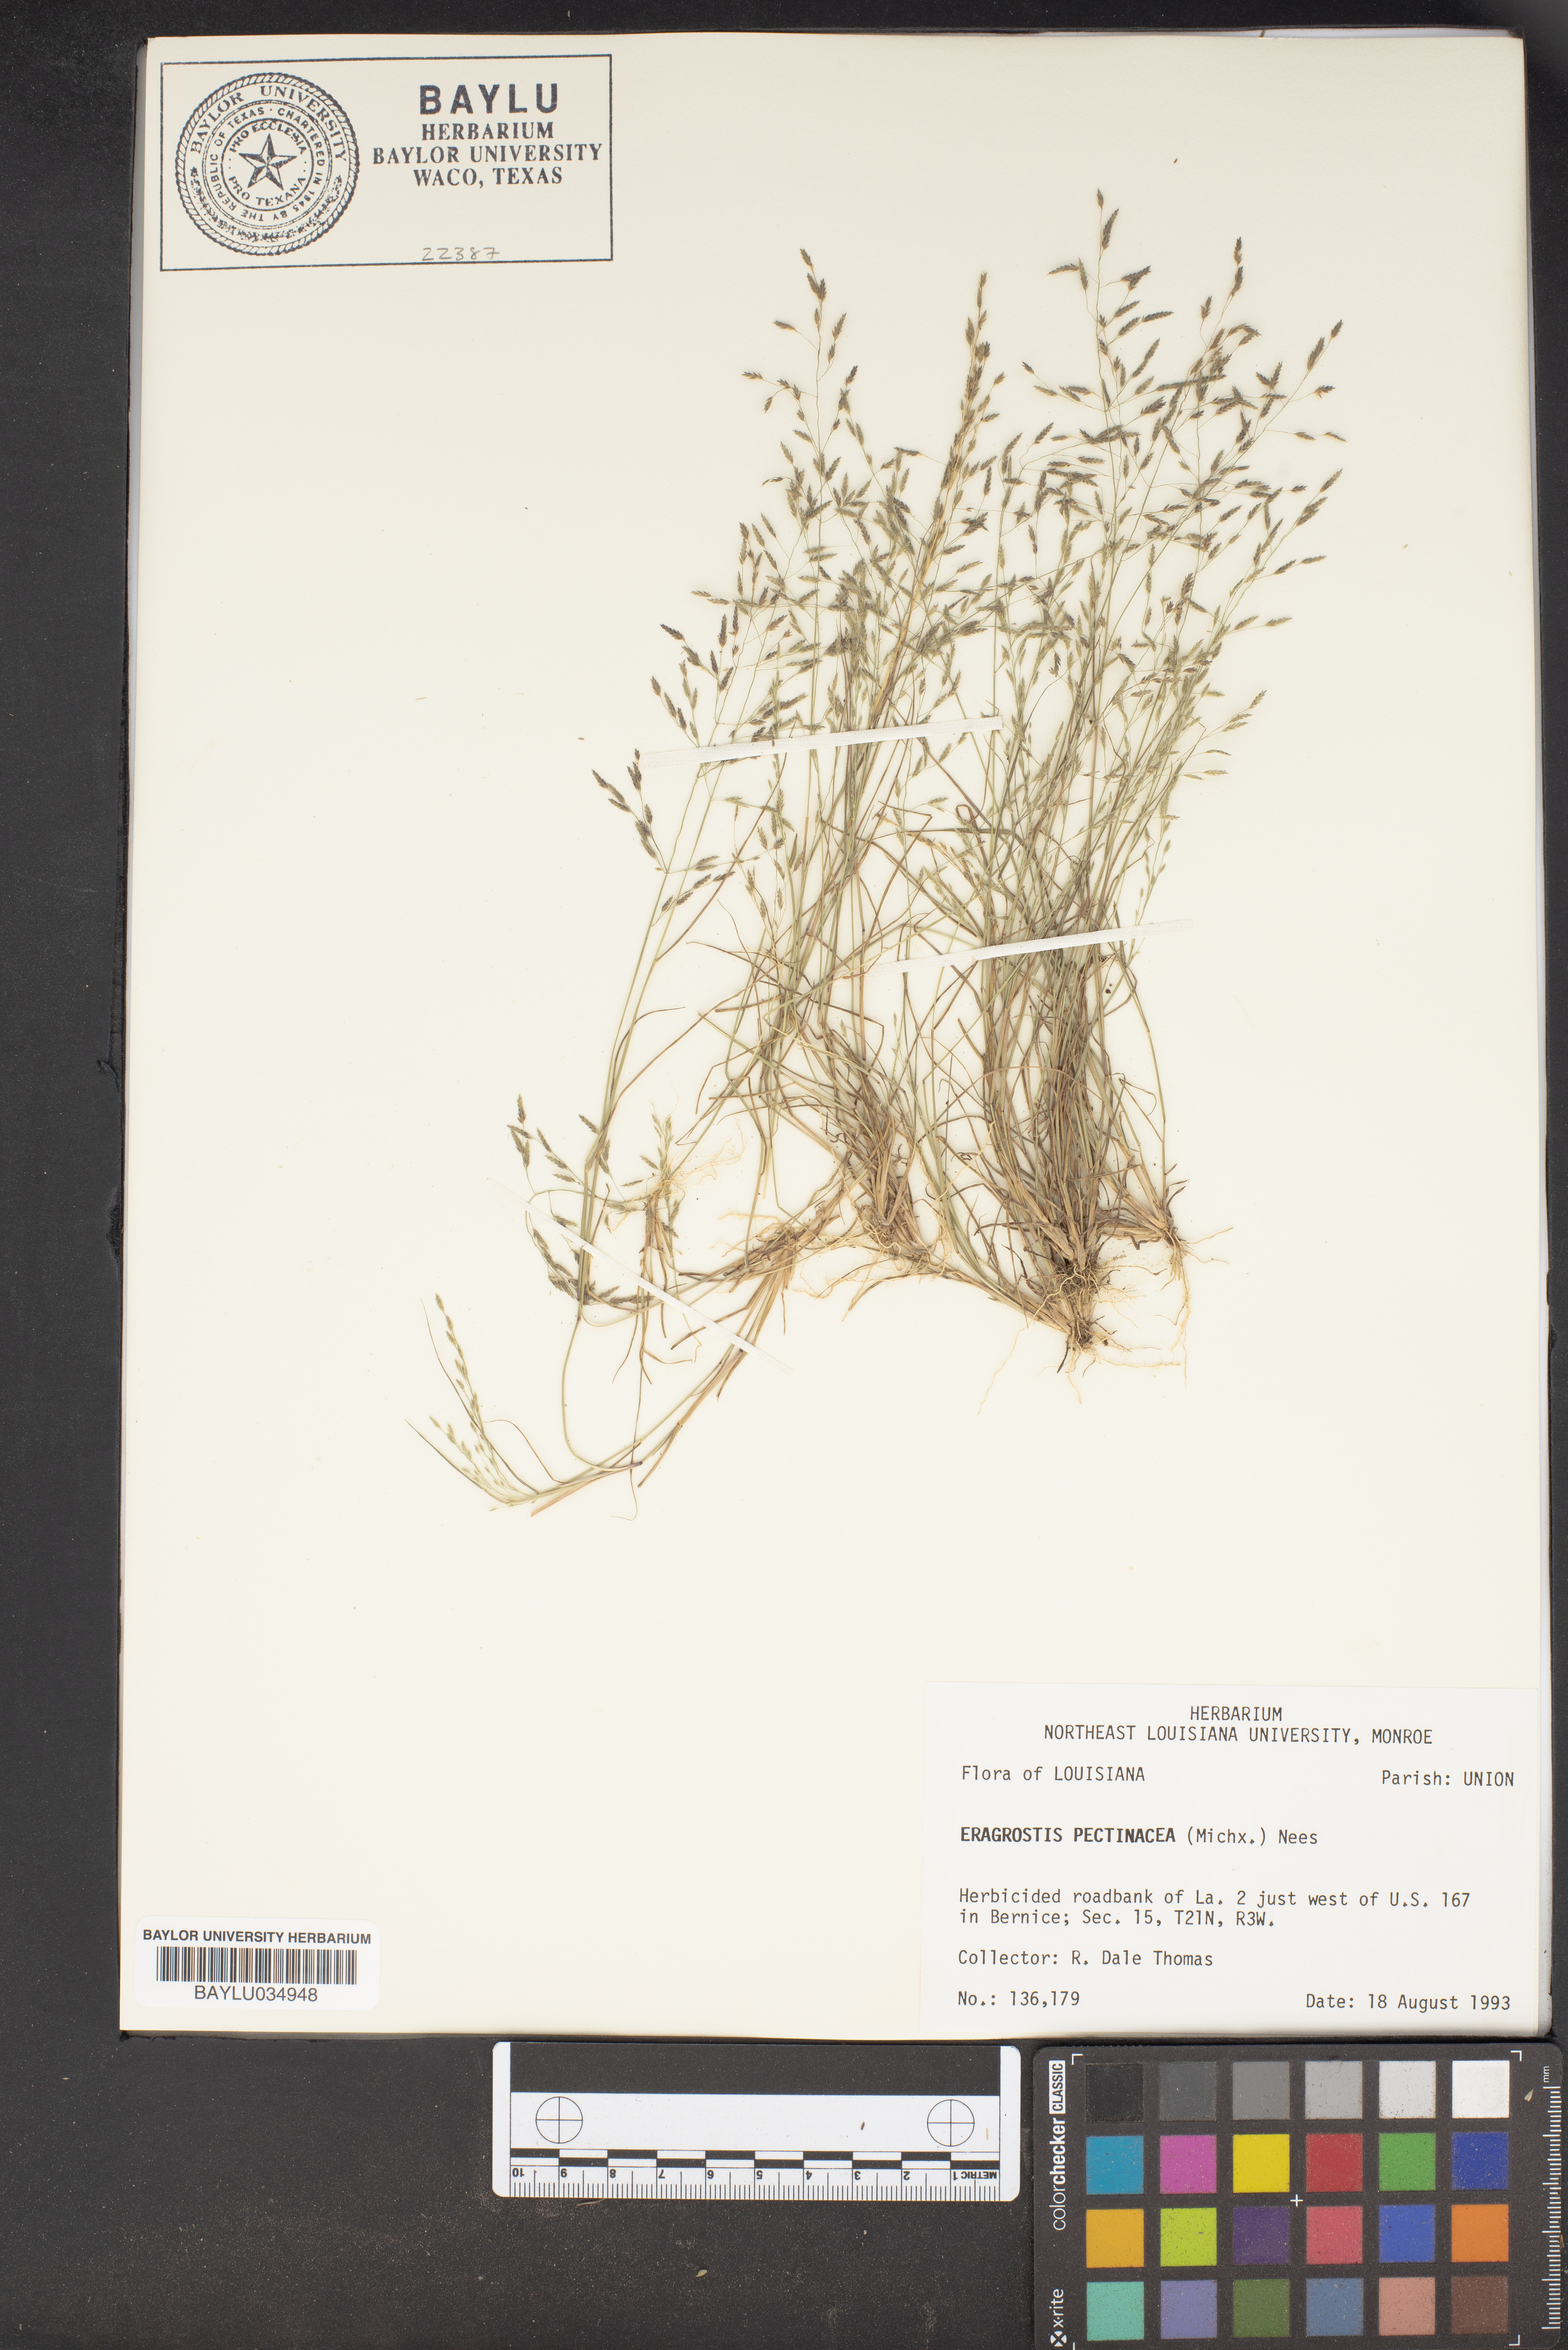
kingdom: Plantae
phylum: Tracheophyta
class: Liliopsida
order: Poales
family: Poaceae
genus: Eragrostis
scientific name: Eragrostis pectinacea
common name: Tufted lovegrass
